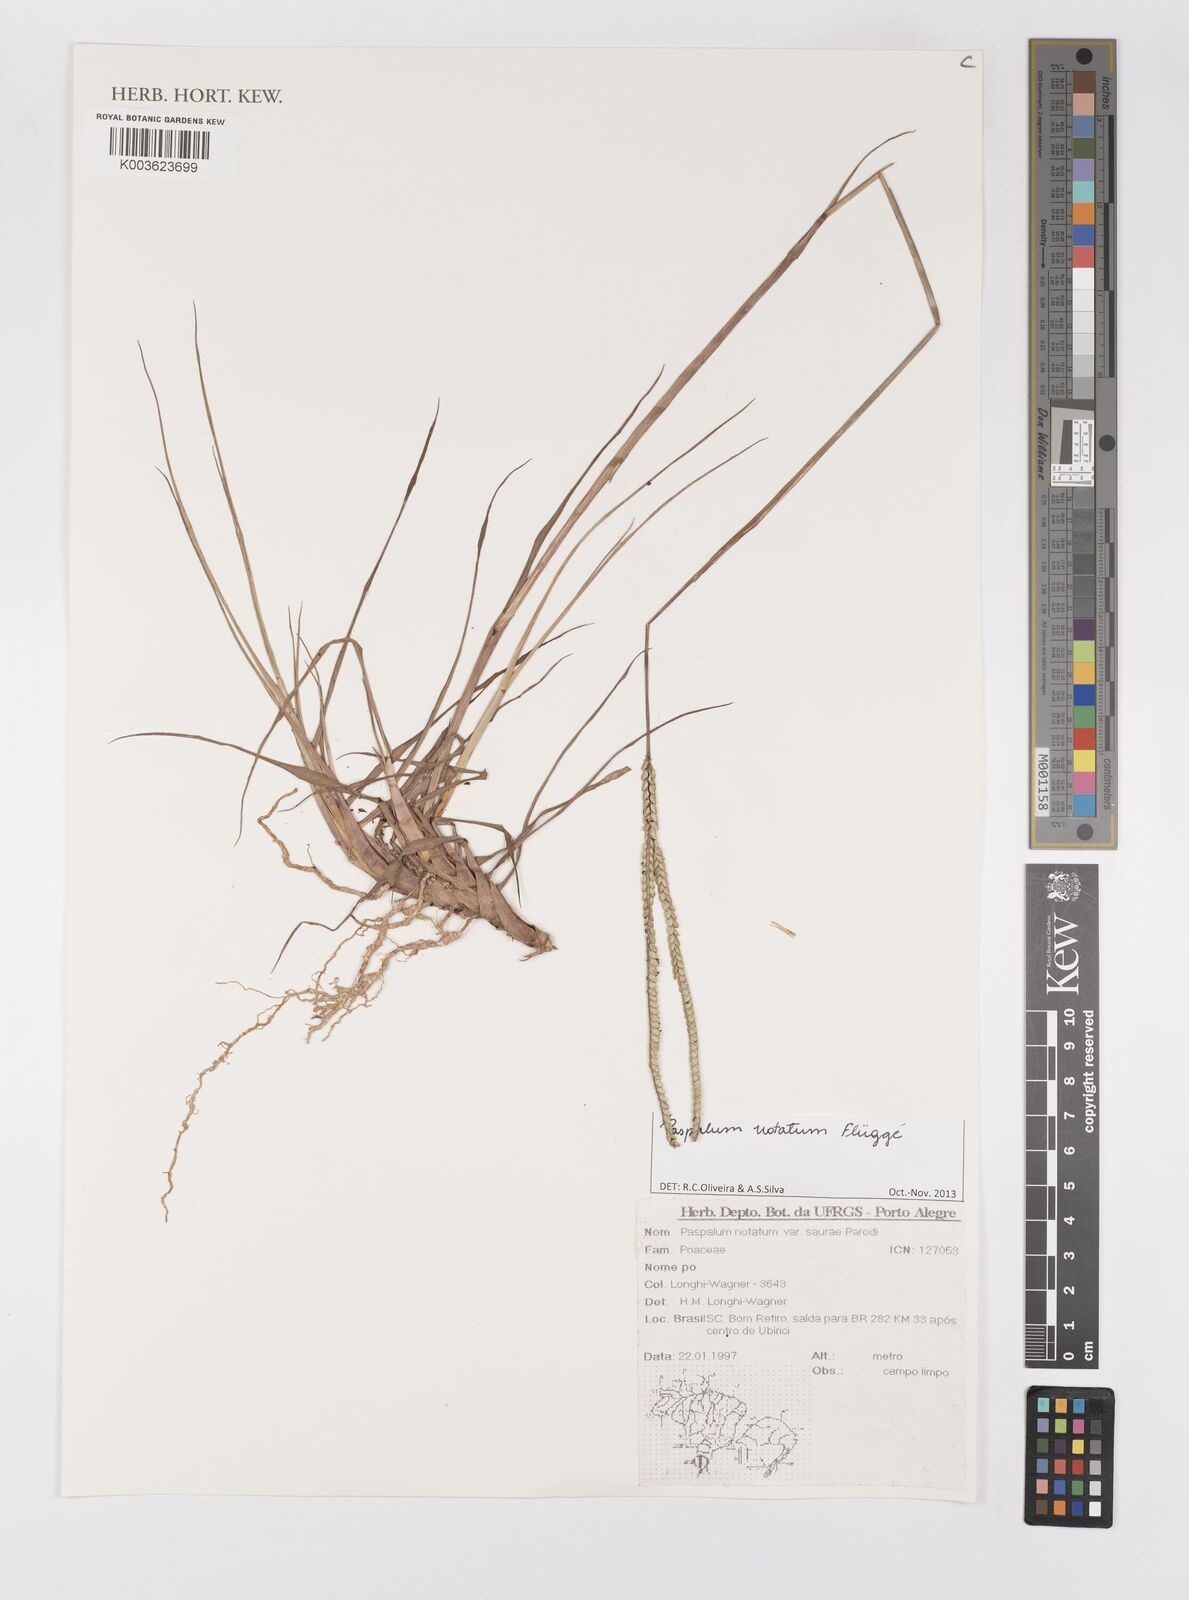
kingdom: Plantae
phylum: Tracheophyta
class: Liliopsida
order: Poales
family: Poaceae
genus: Paspalum
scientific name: Paspalum notatum
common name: Bahiagrass
